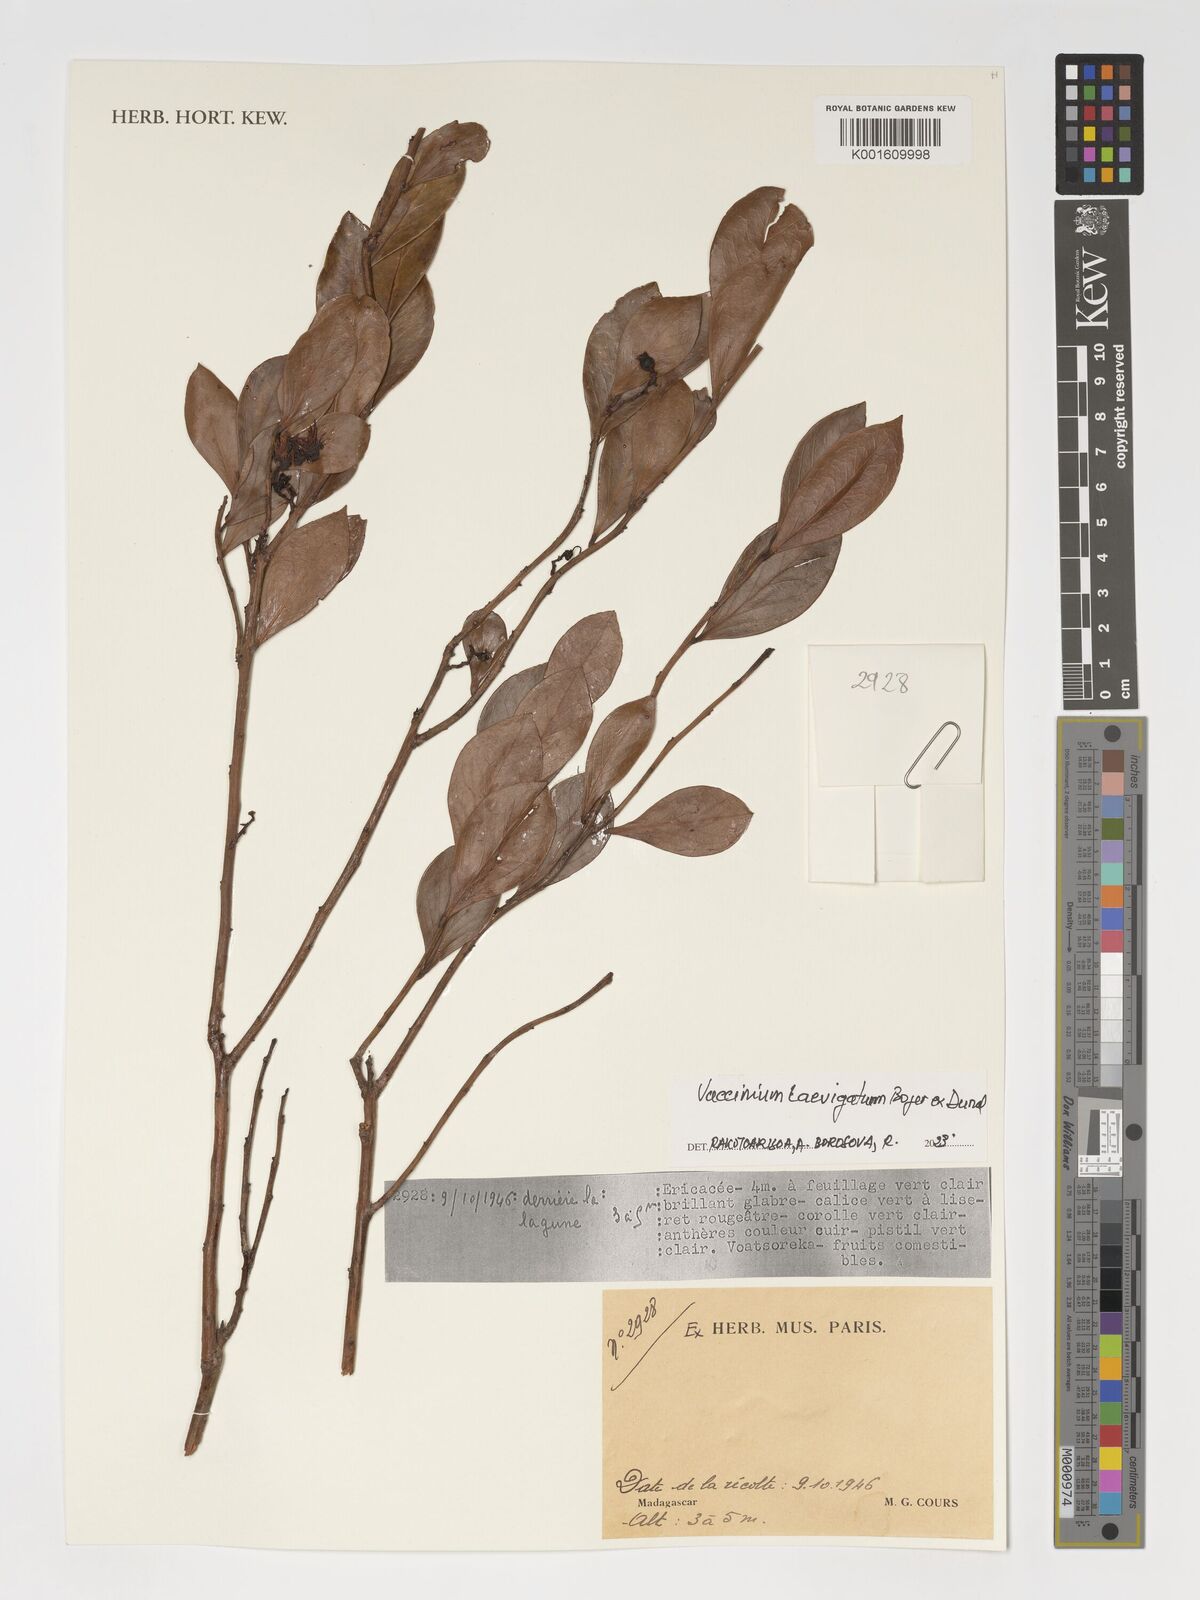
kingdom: Plantae
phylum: Tracheophyta
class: Magnoliopsida
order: Ericales
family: Ericaceae
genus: Vaccinium
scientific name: Vaccinium madagascariense
